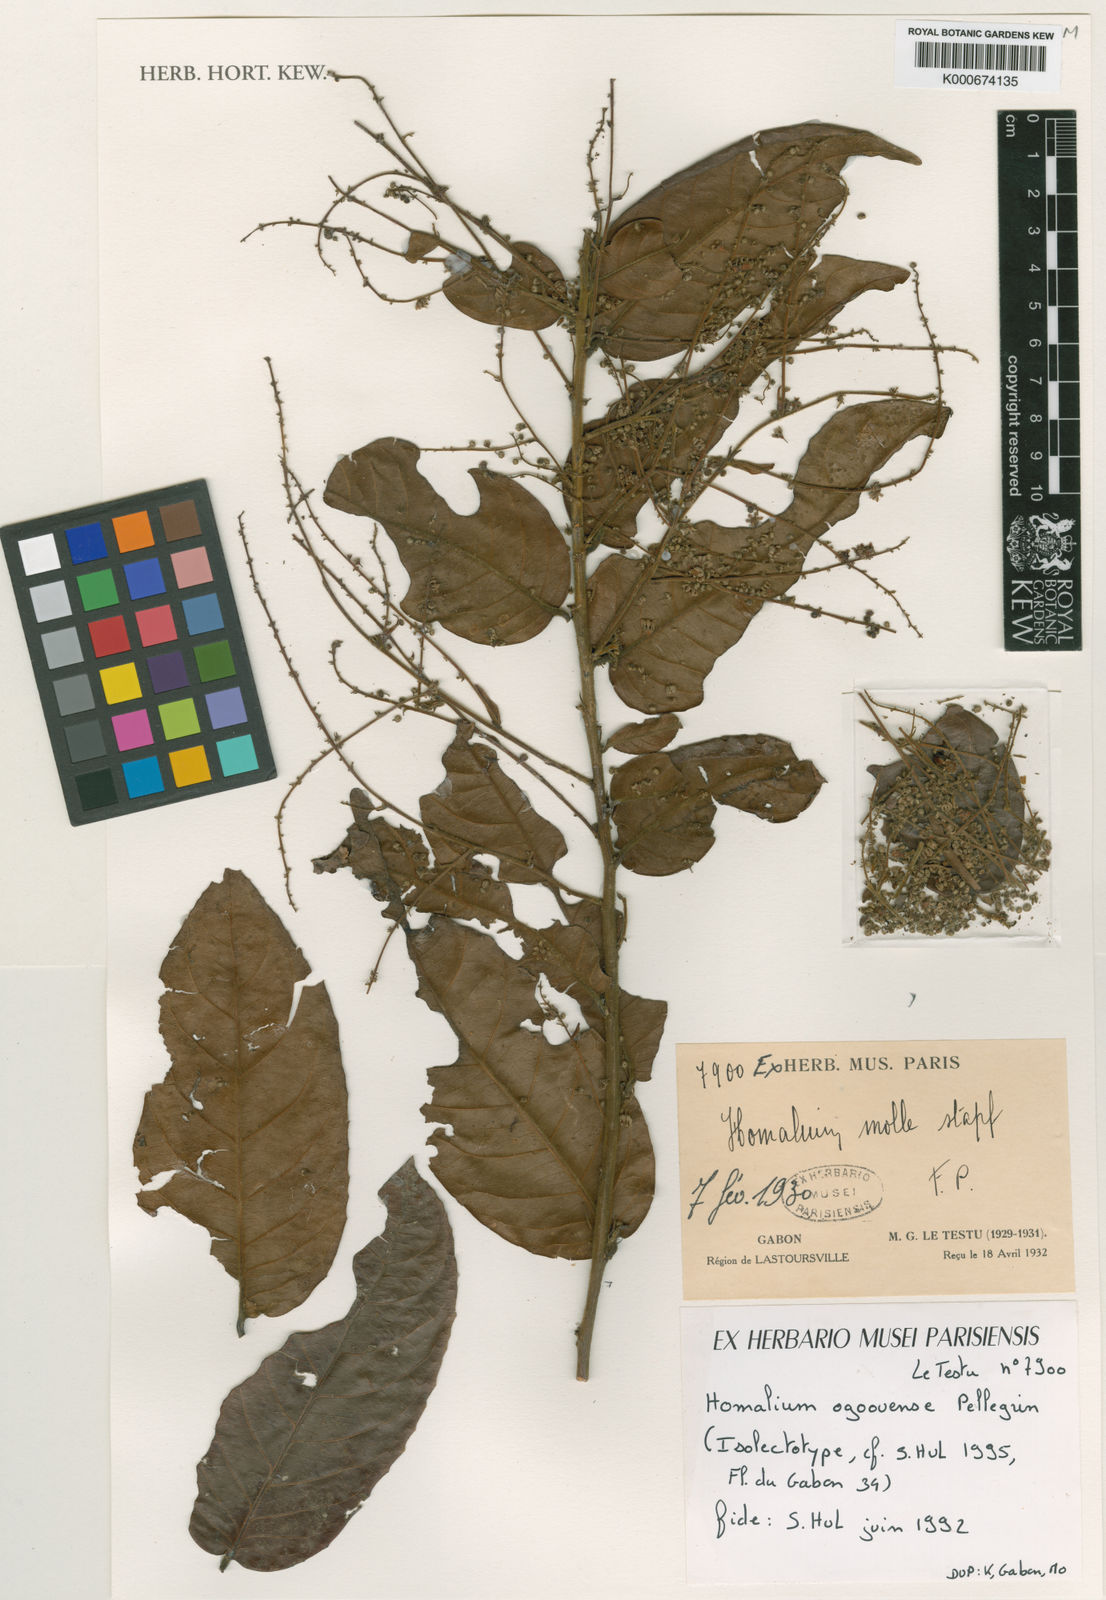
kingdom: Plantae
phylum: Tracheophyta
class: Magnoliopsida
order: Malpighiales
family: Salicaceae
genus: Homalium
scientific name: Homalium ogoouense
